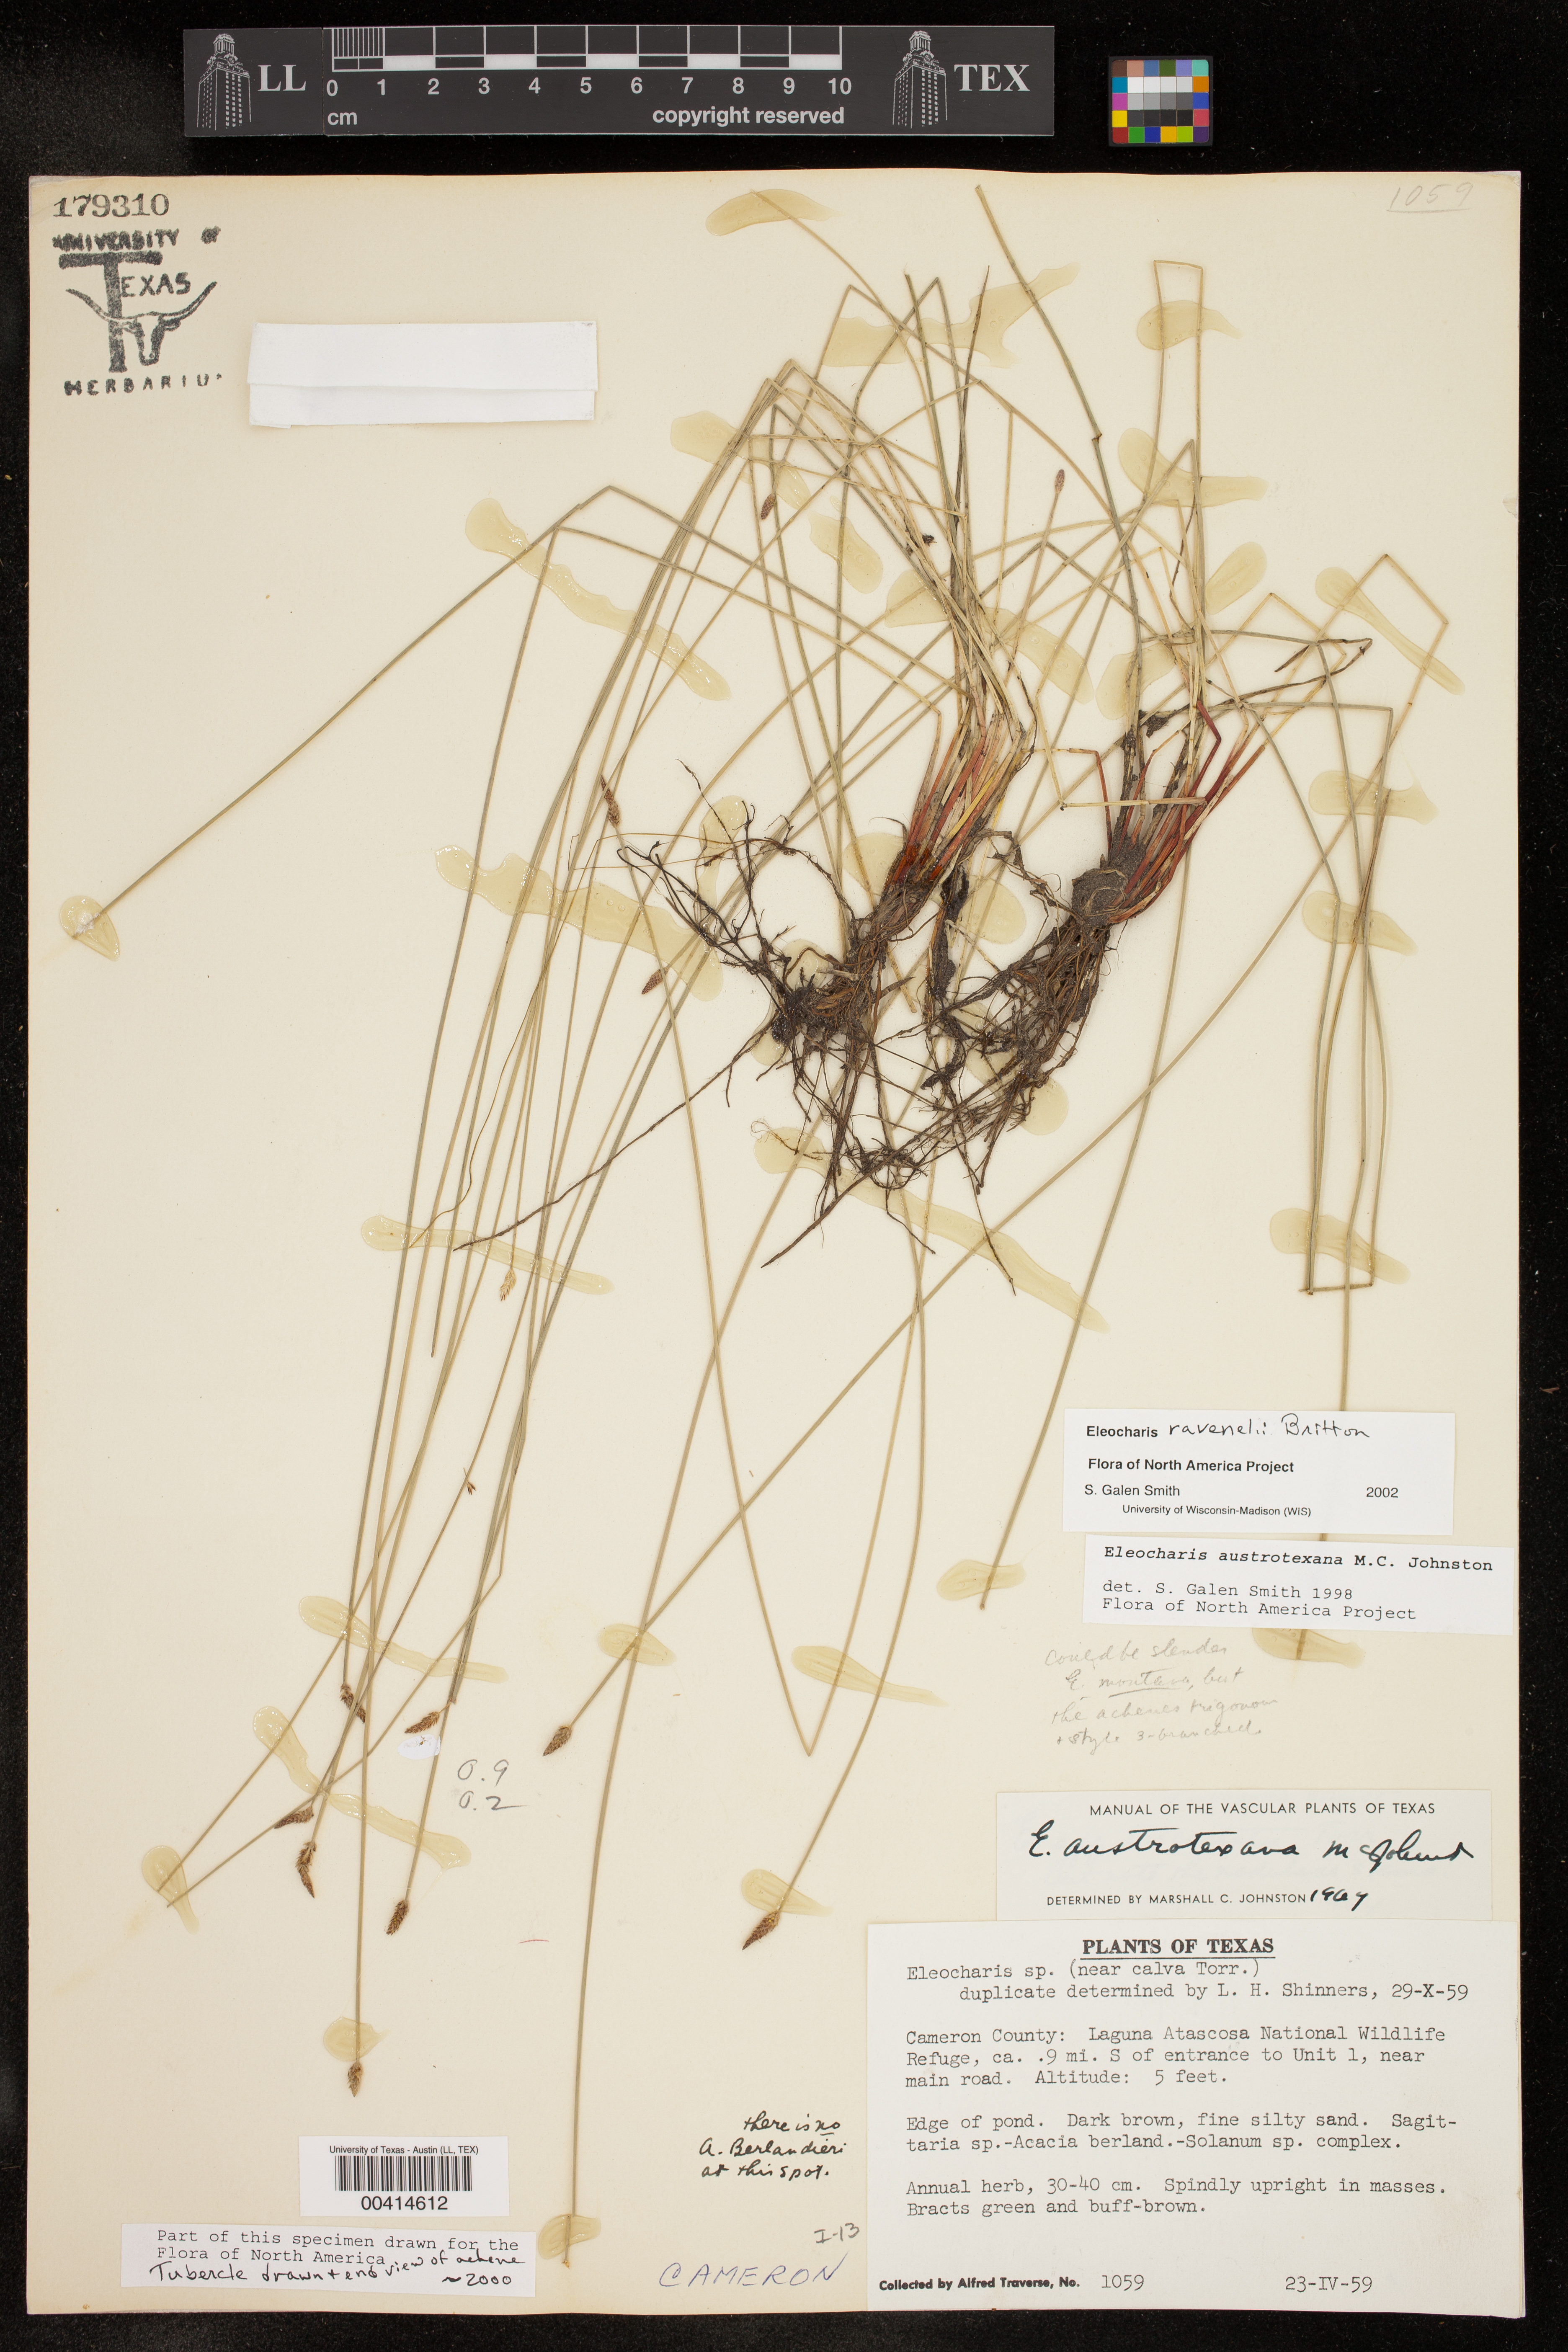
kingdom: Plantae
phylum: Tracheophyta
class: Liliopsida
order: Poales
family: Cyperaceae
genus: Eleocharis
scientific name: Eleocharis ravenelii
